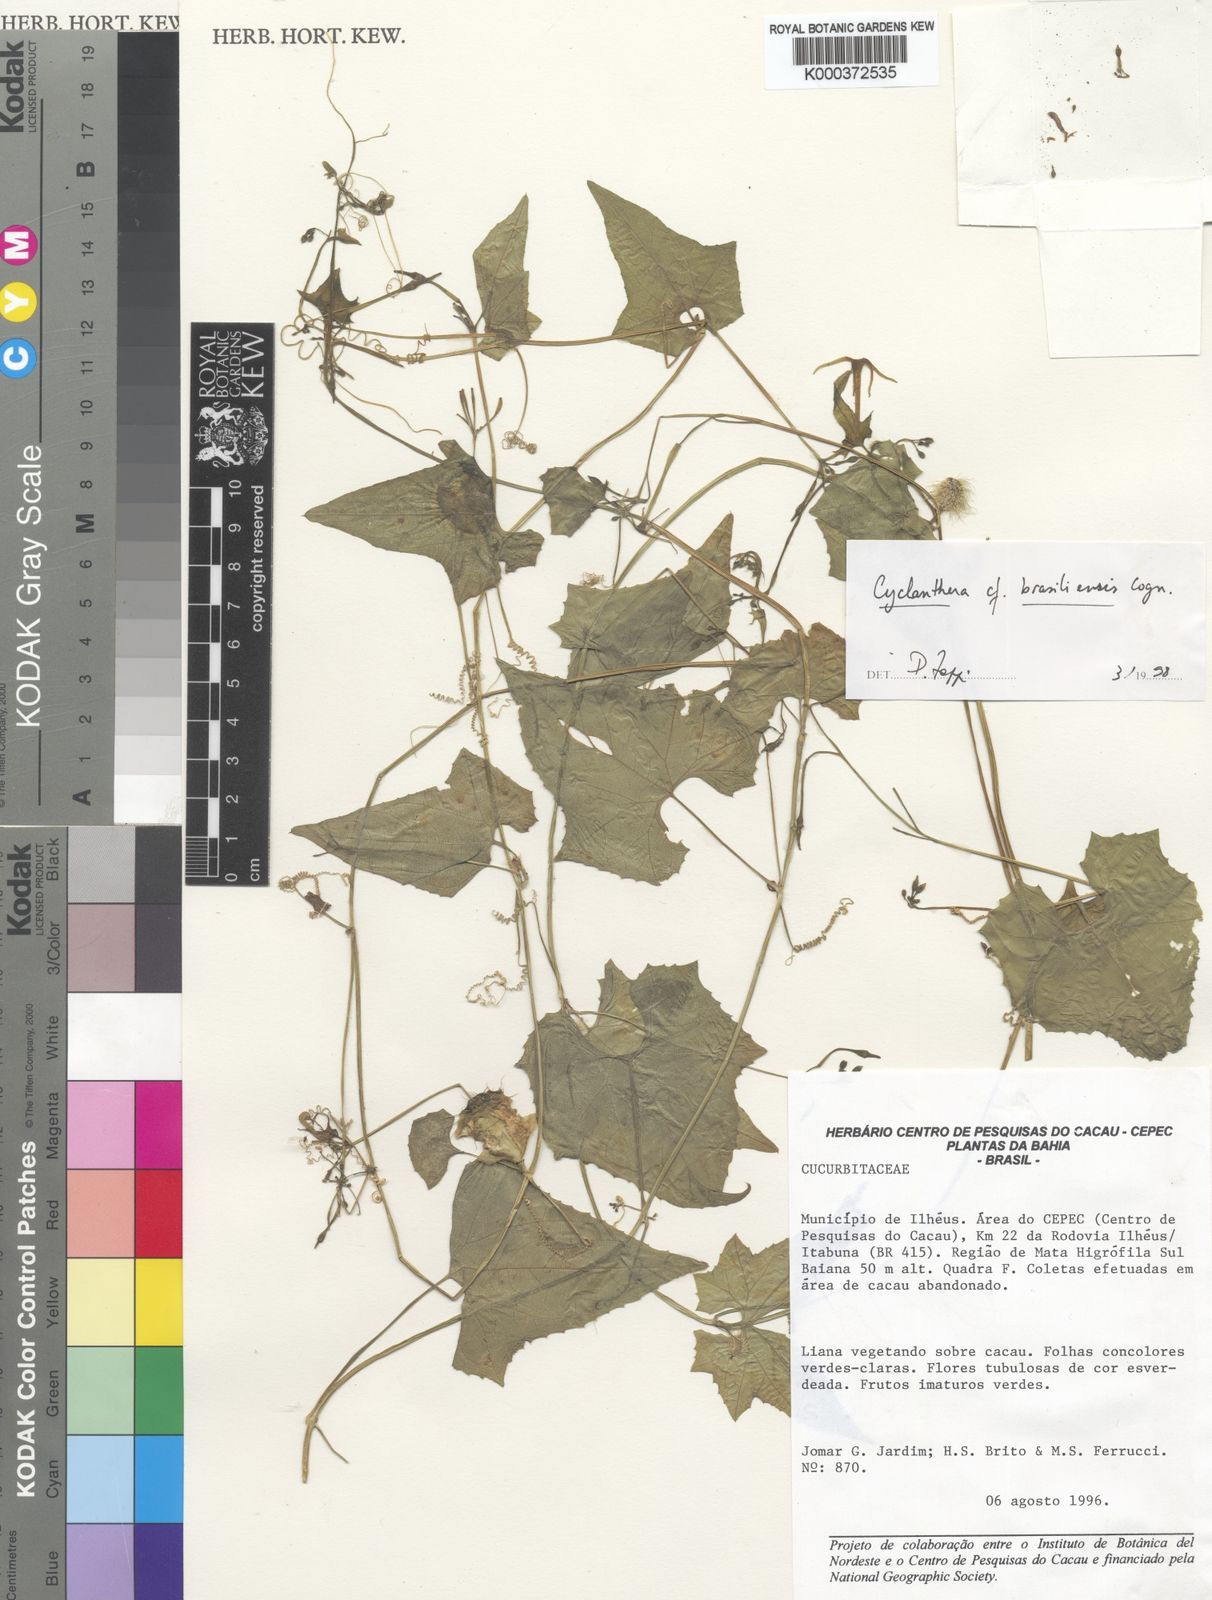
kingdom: Plantae
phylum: Tracheophyta
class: Magnoliopsida
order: Cucurbitales
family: Cucurbitaceae
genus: Cyclanthera
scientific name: Cyclanthera quinquelobata
